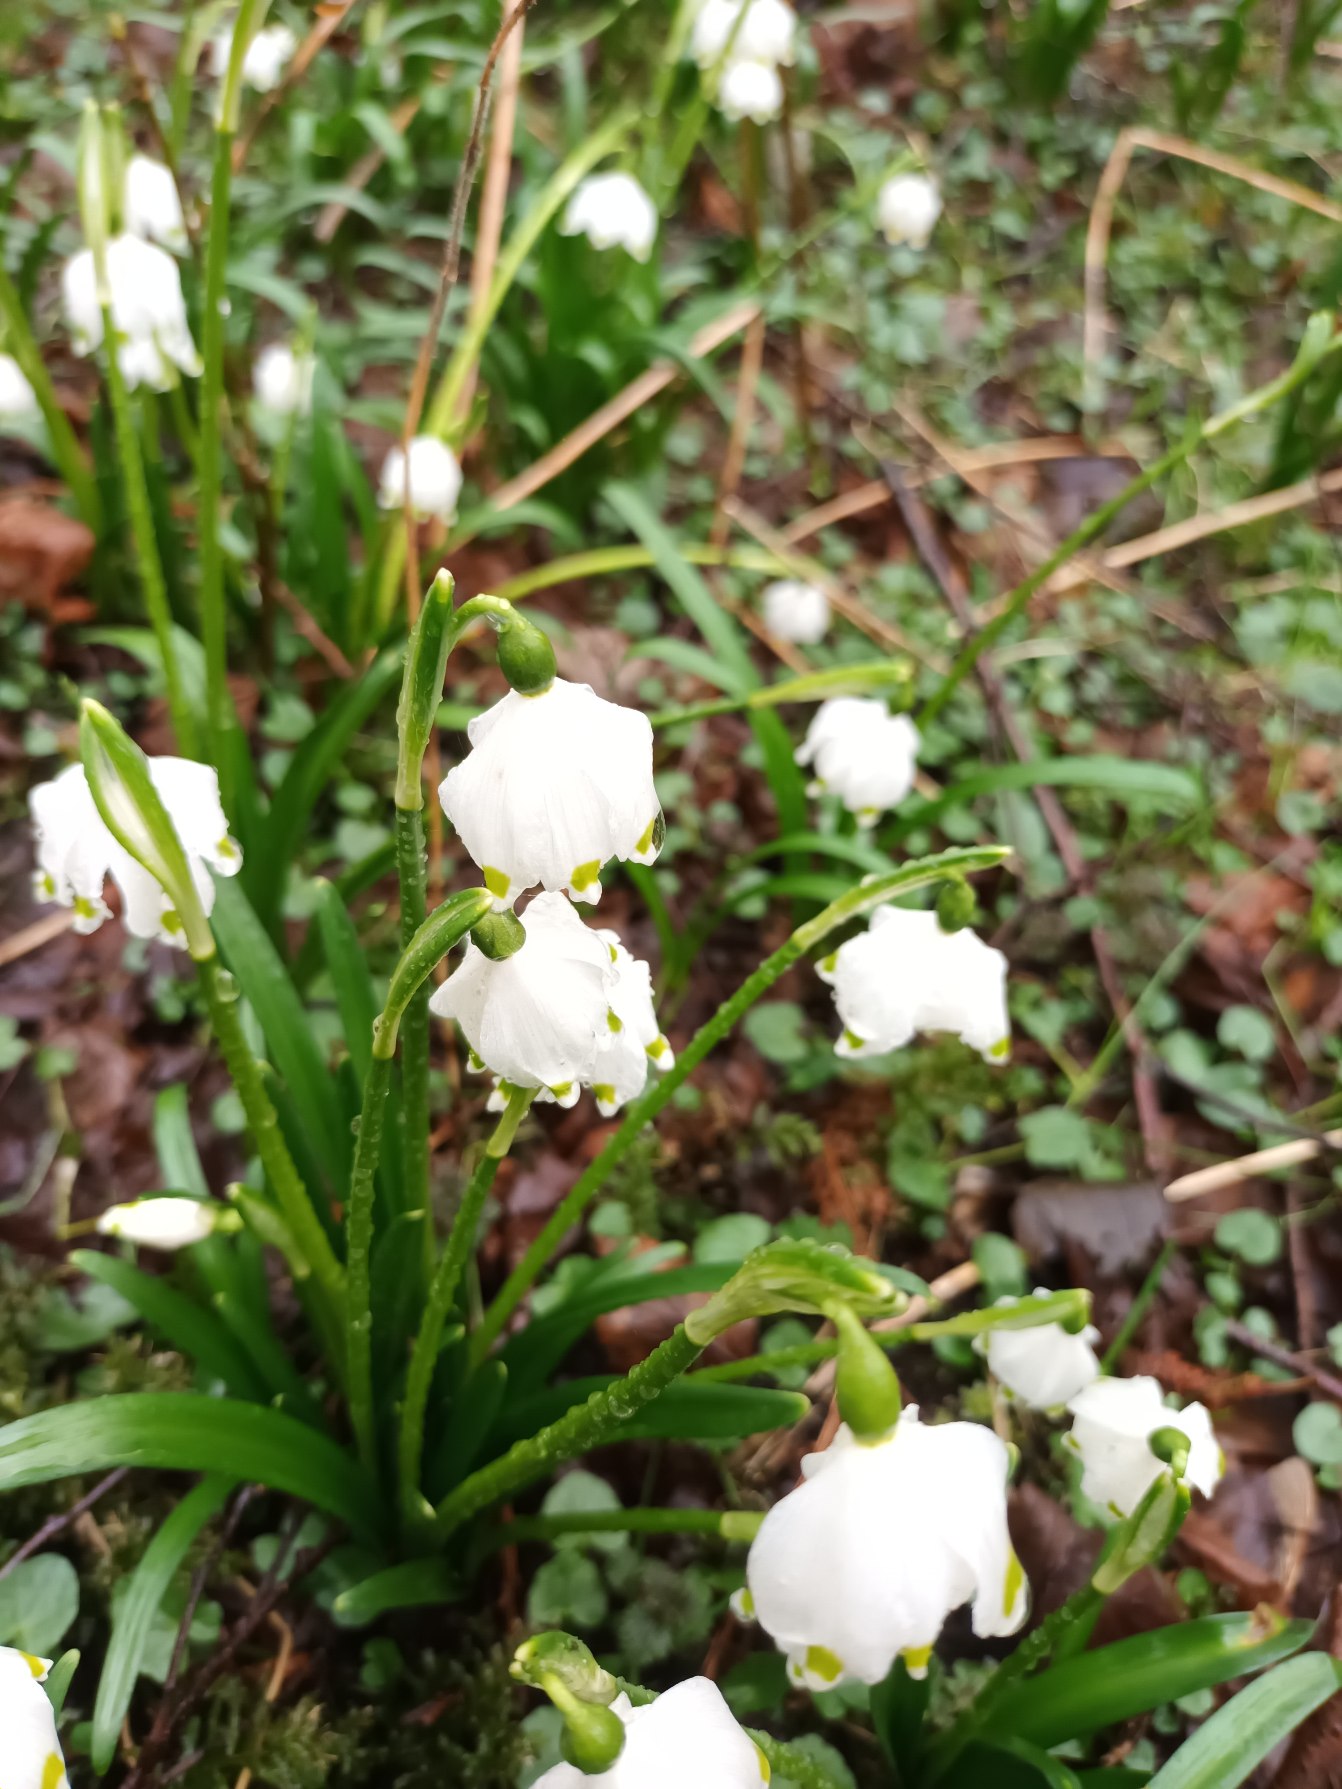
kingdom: Plantae
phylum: Tracheophyta
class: Liliopsida
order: Asparagales
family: Amaryllidaceae
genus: Leucojum
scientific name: Leucojum vernum
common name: Dorthealilje
